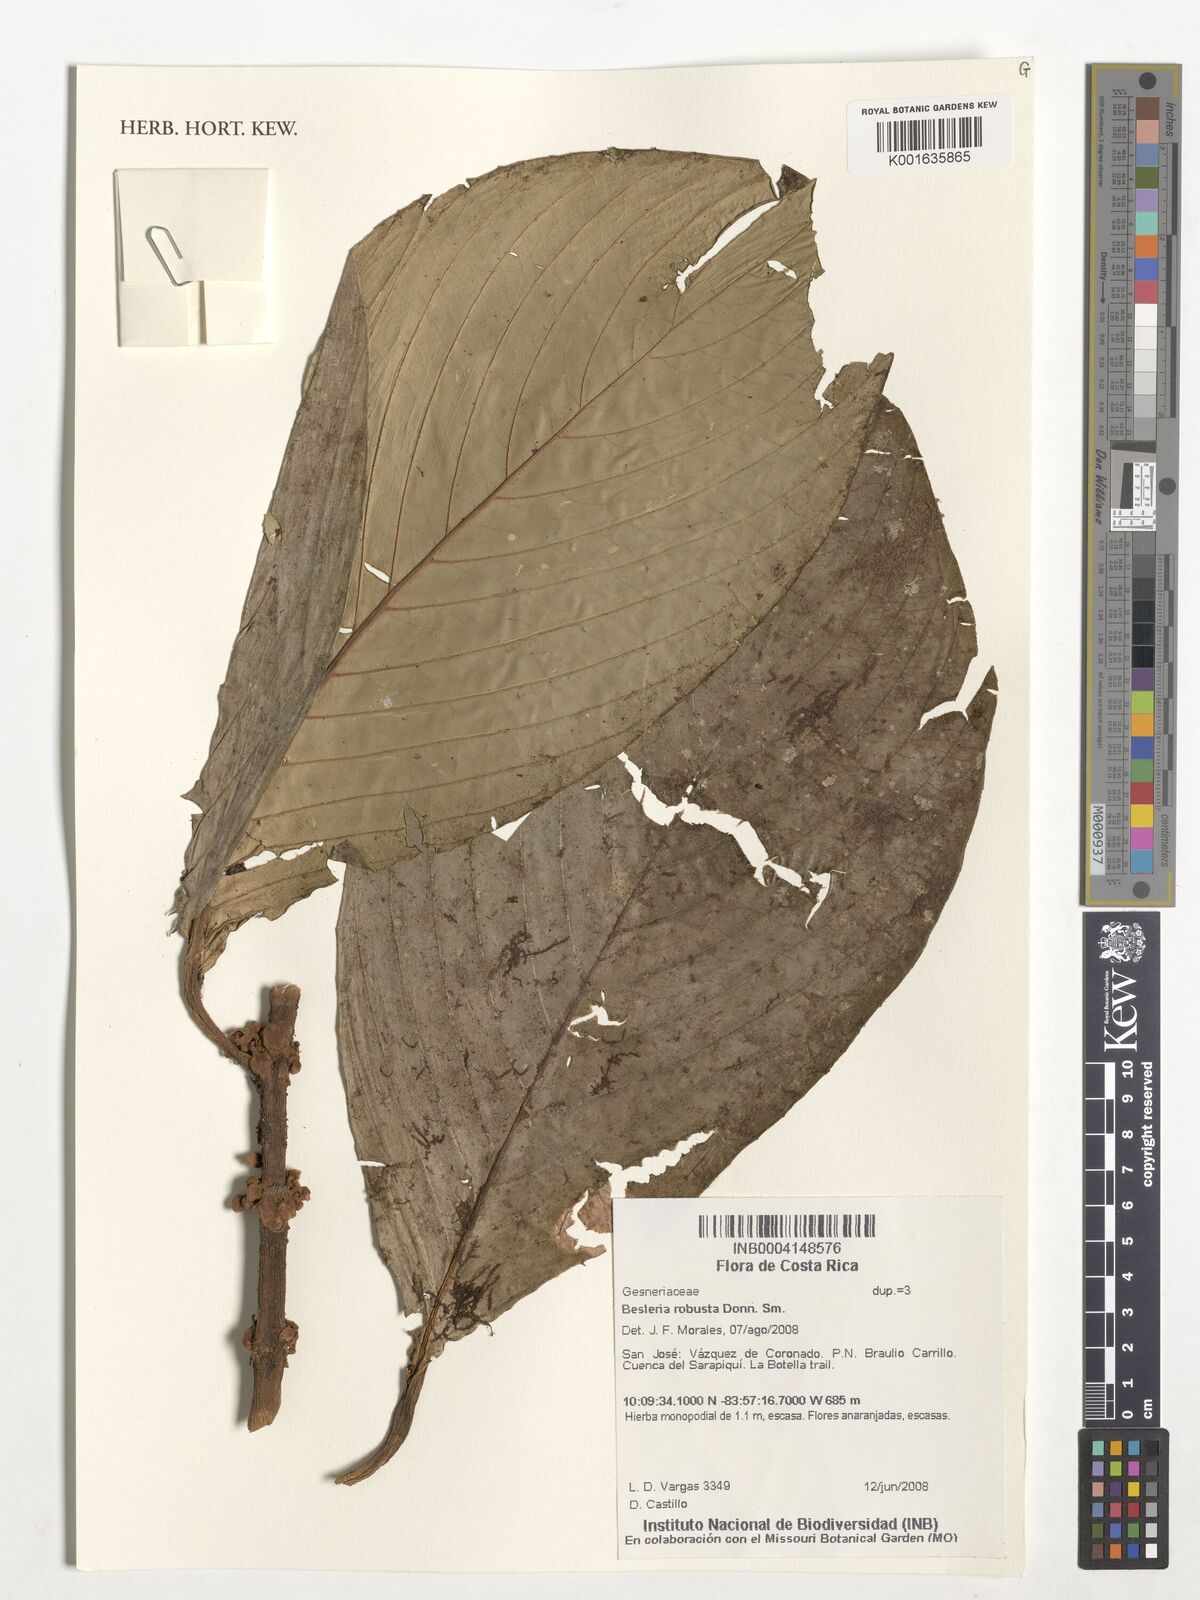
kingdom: Plantae
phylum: Tracheophyta
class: Magnoliopsida
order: Lamiales
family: Gesneriaceae
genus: Besleria
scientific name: Besleria robusta
